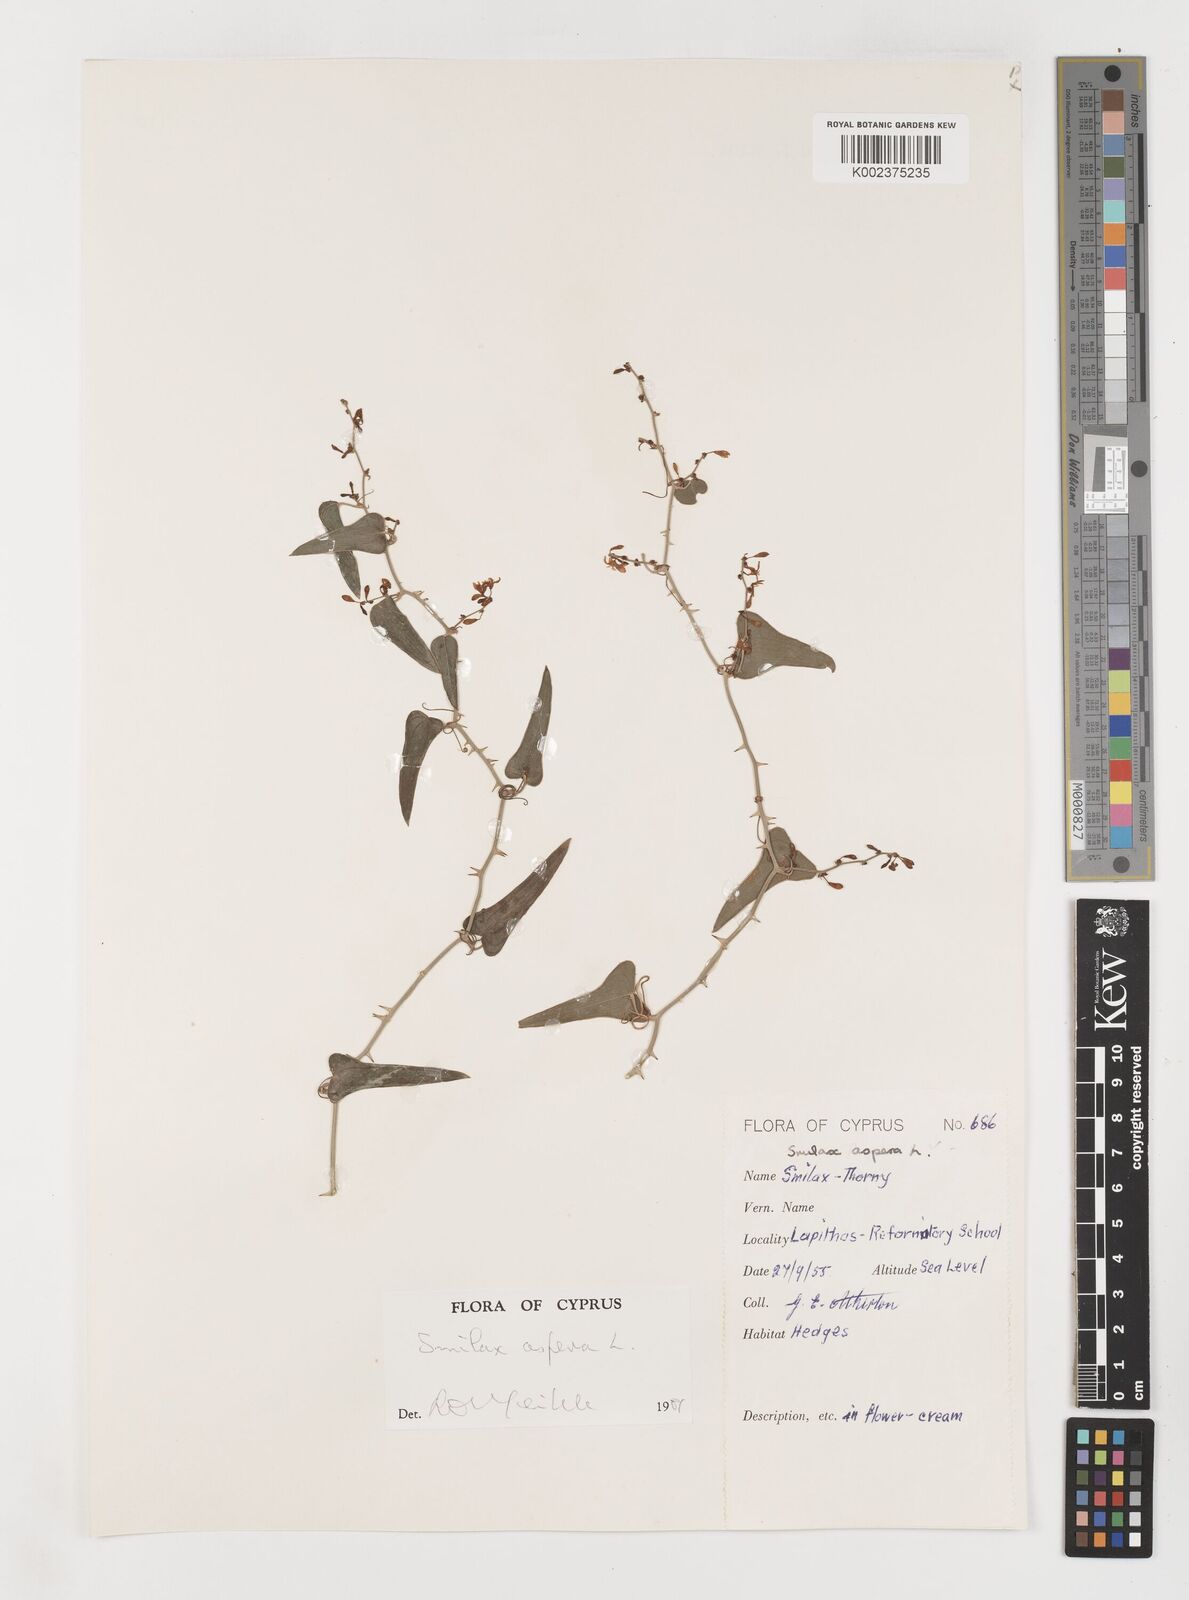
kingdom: Plantae
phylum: Tracheophyta
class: Liliopsida
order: Liliales
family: Smilacaceae
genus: Smilax
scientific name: Smilax aspera
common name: Common smilax
